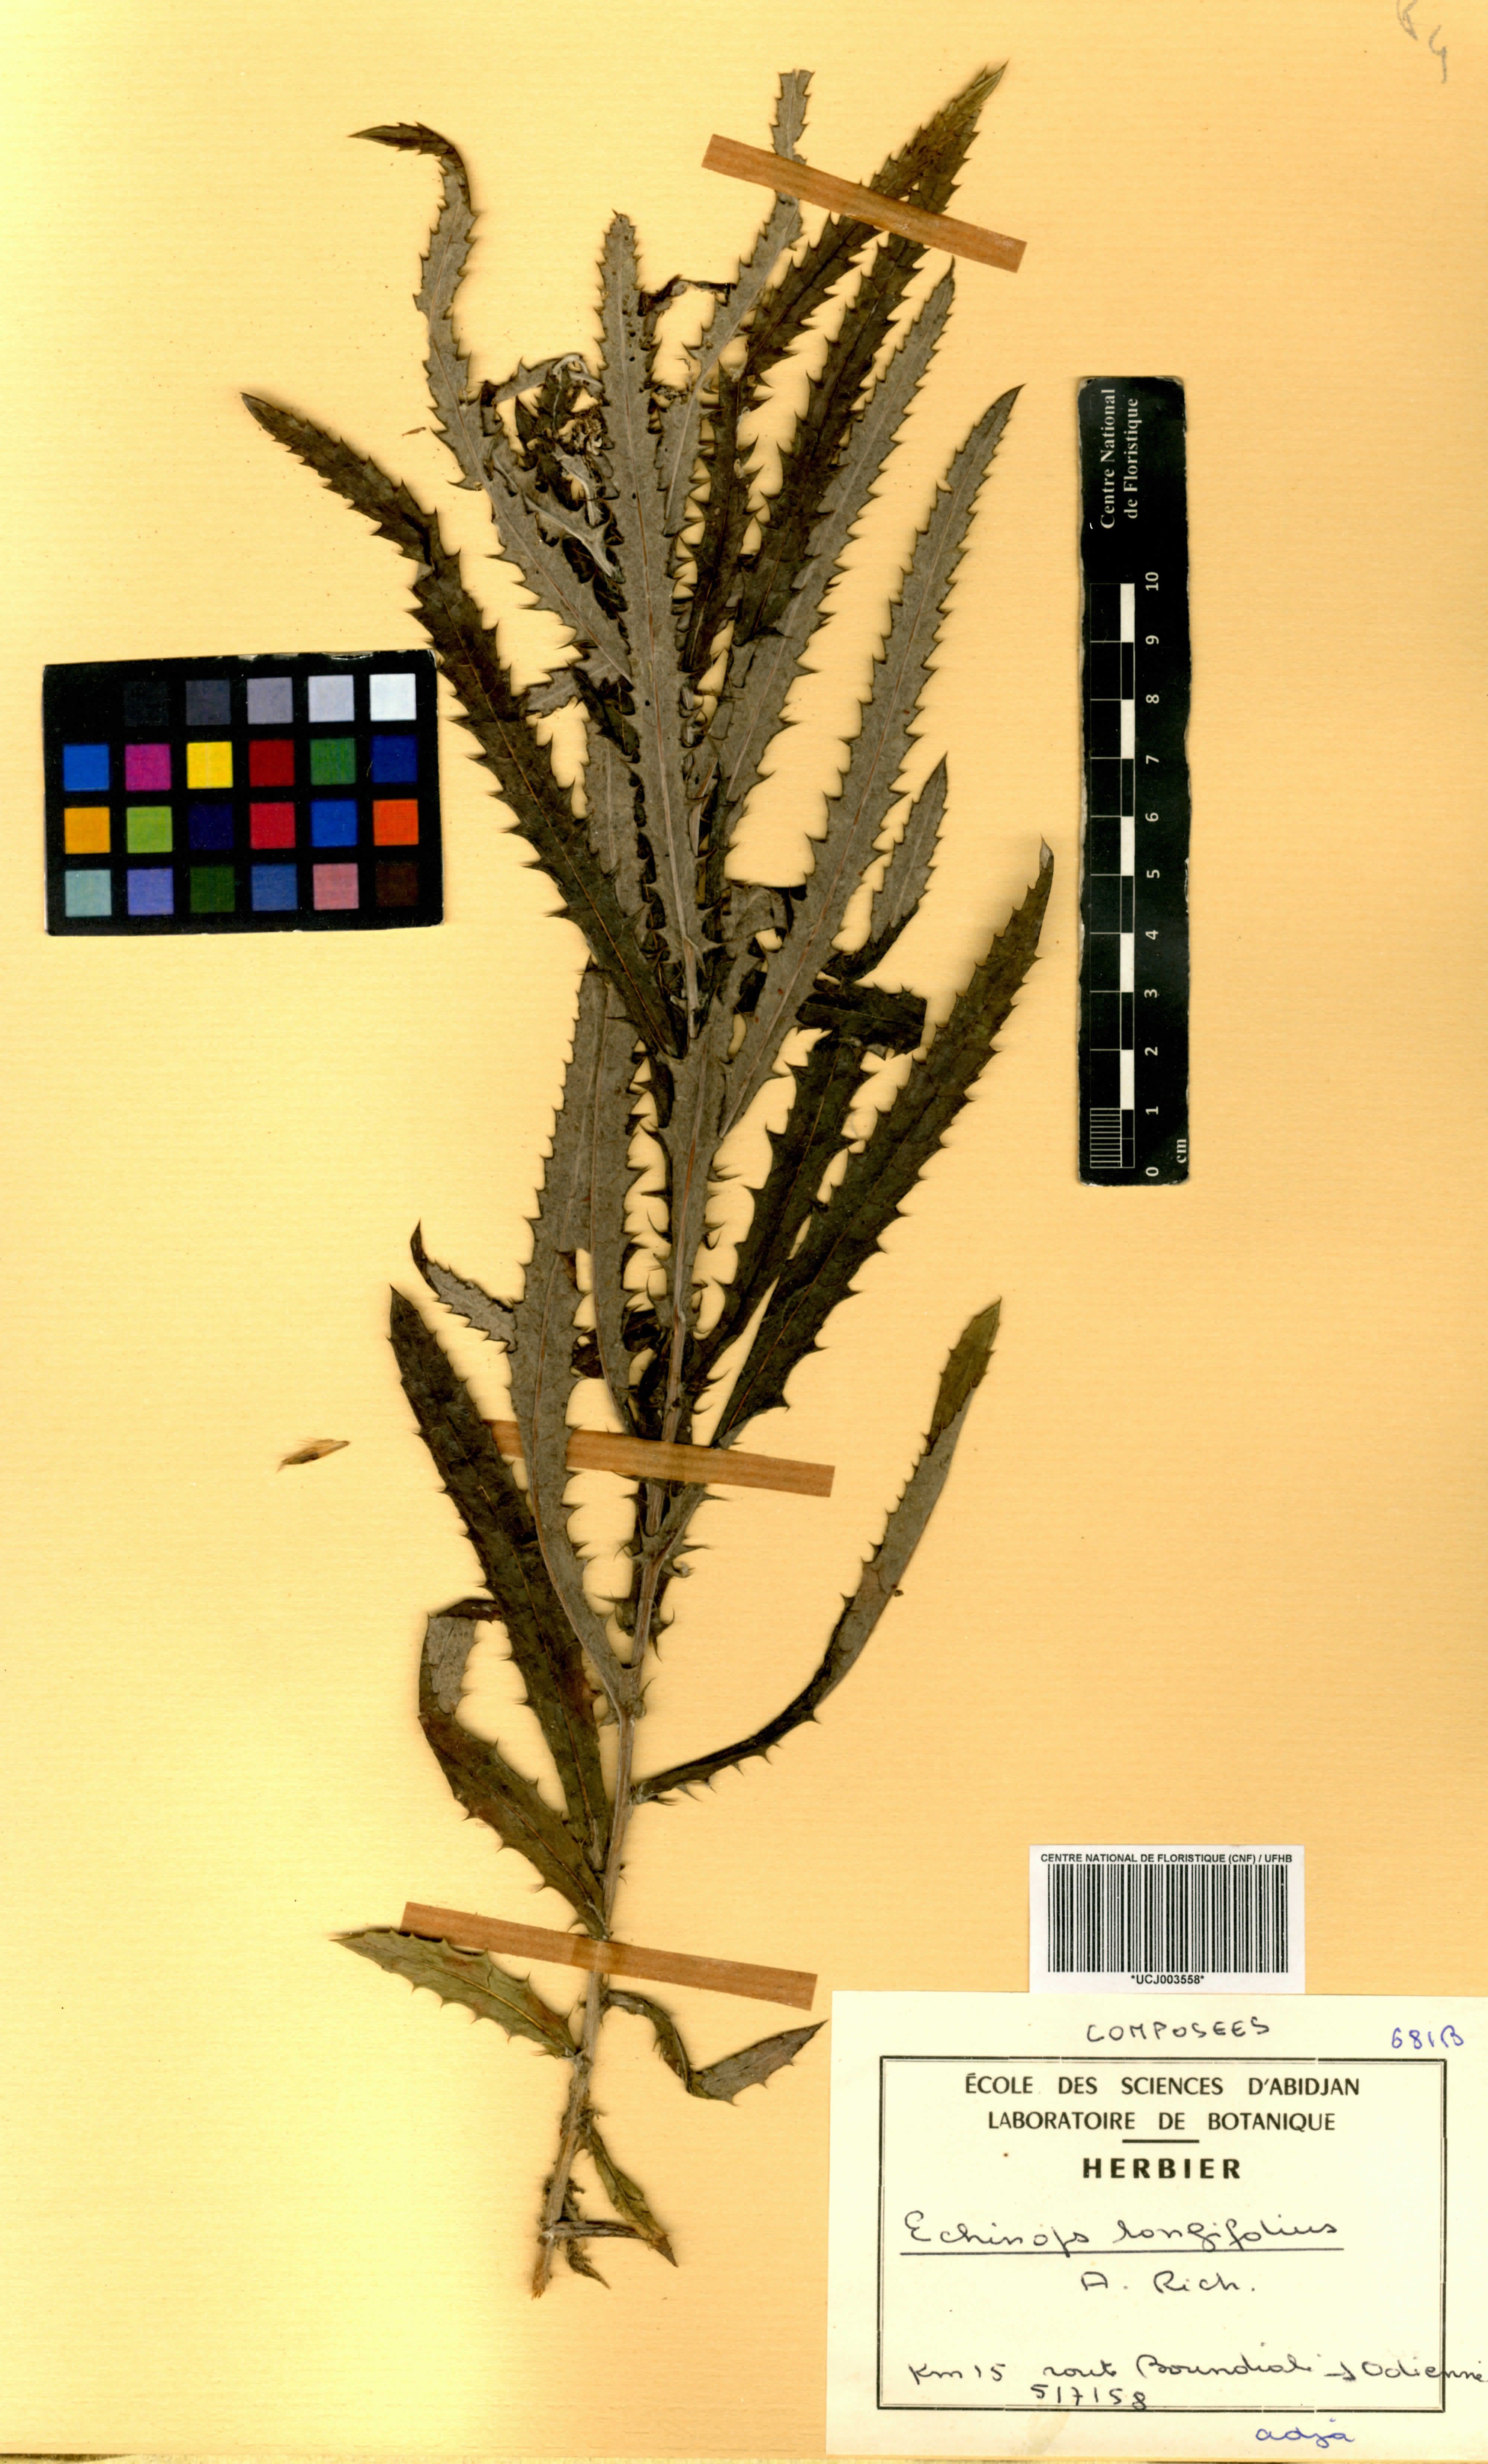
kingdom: Plantae
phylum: Tracheophyta
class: Magnoliopsida
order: Asterales
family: Asteraceae
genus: Echinops
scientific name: Echinops longifolius
